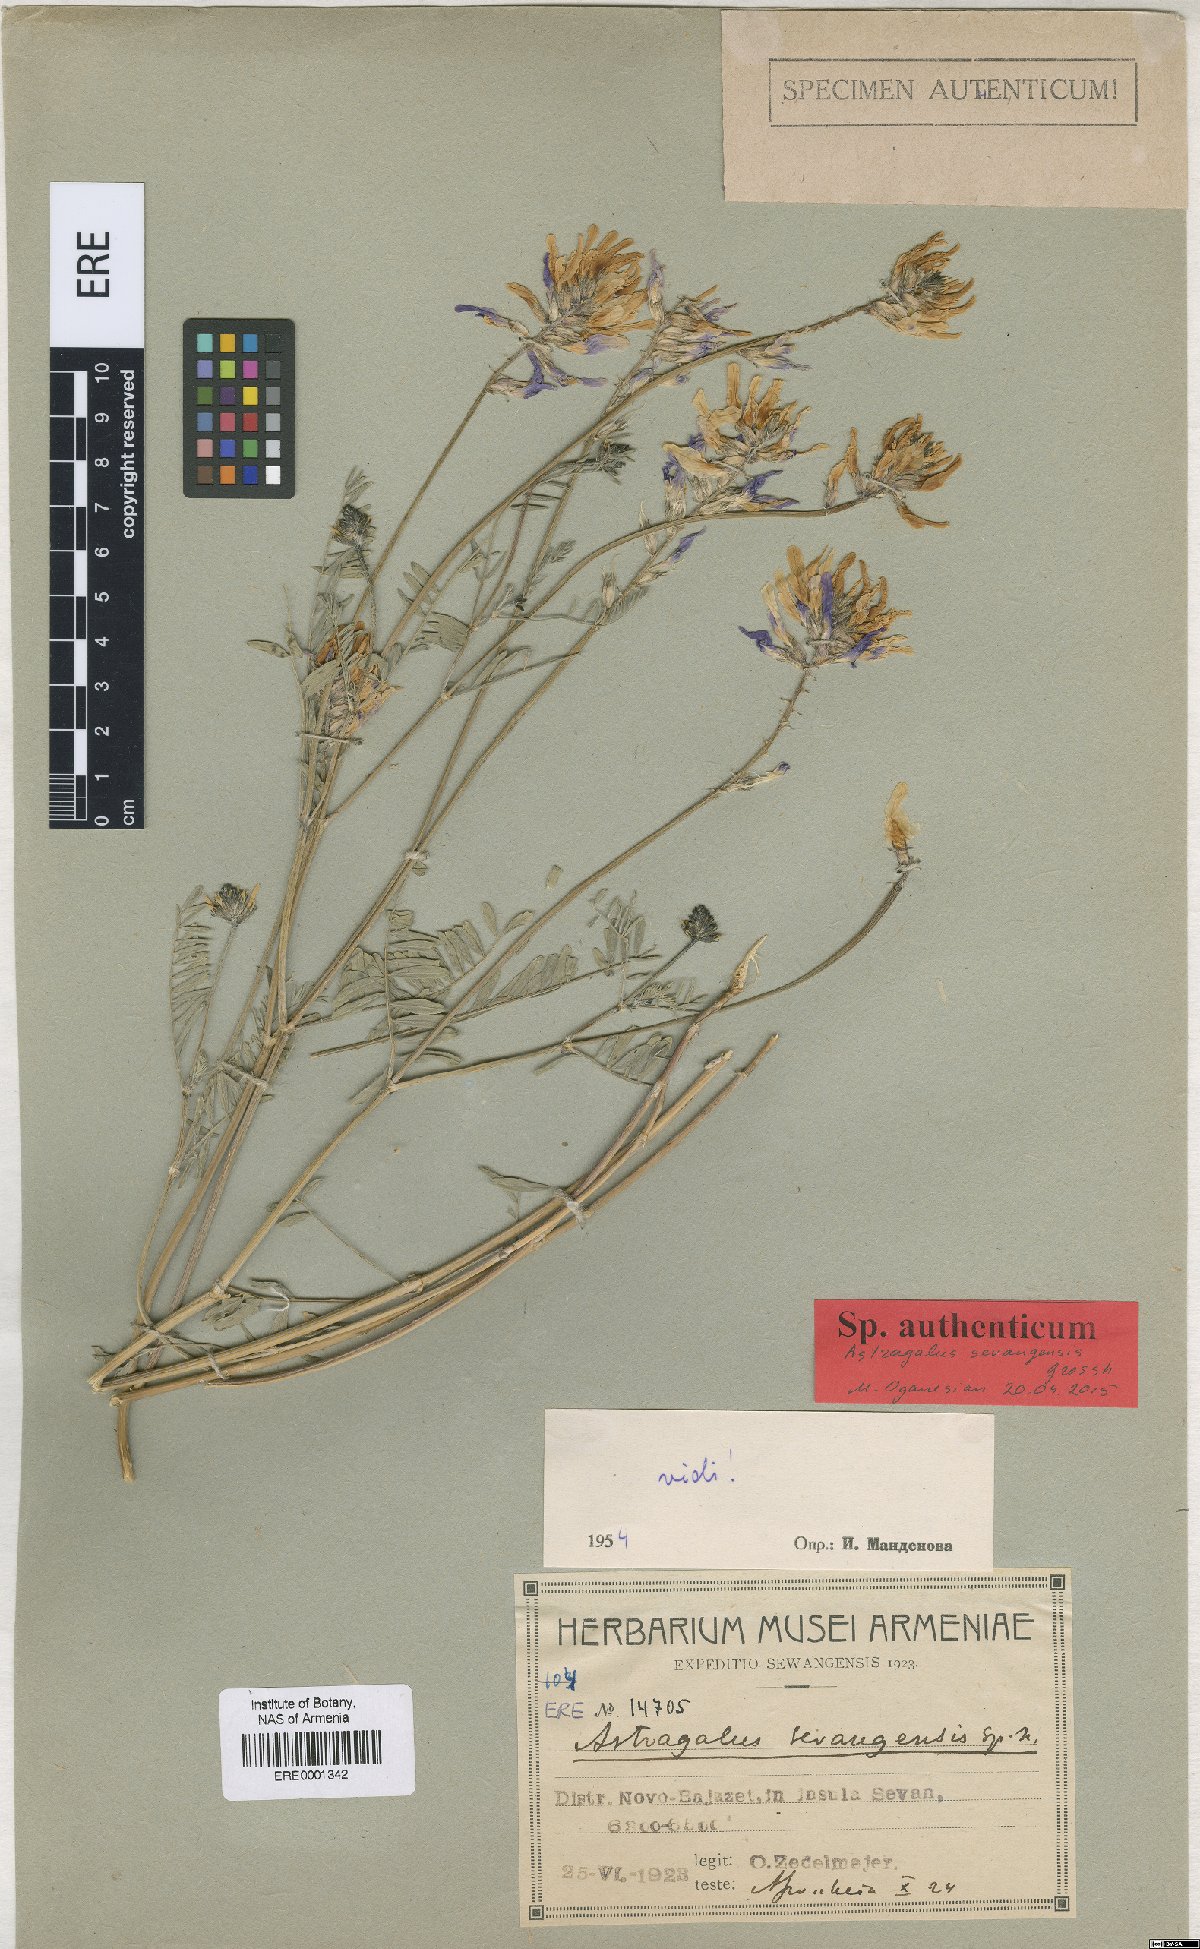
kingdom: Plantae
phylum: Tracheophyta
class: Magnoliopsida
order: Fabales
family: Fabaceae
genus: Astragalus
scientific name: Astragalus sevangensis
